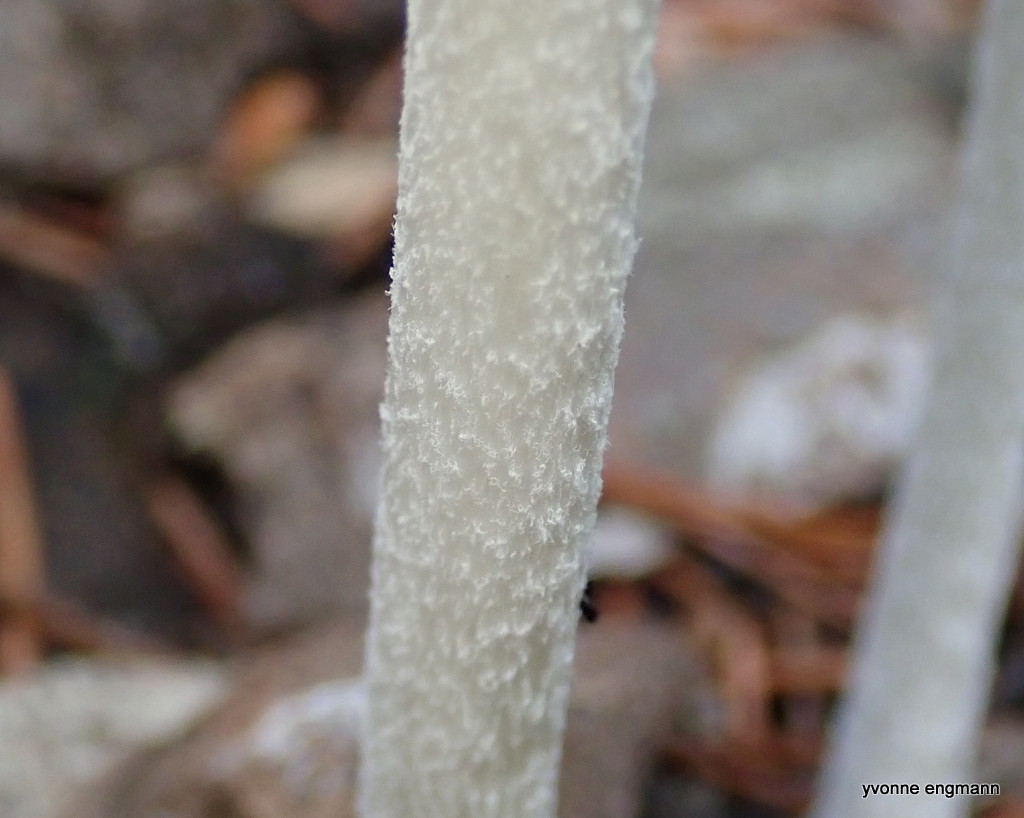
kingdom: Fungi
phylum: Basidiomycota
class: Agaricomycetes
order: Agaricales
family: Psathyrellaceae
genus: Coprinopsis
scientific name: Coprinopsis lagopus
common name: dunstokket blækhat
